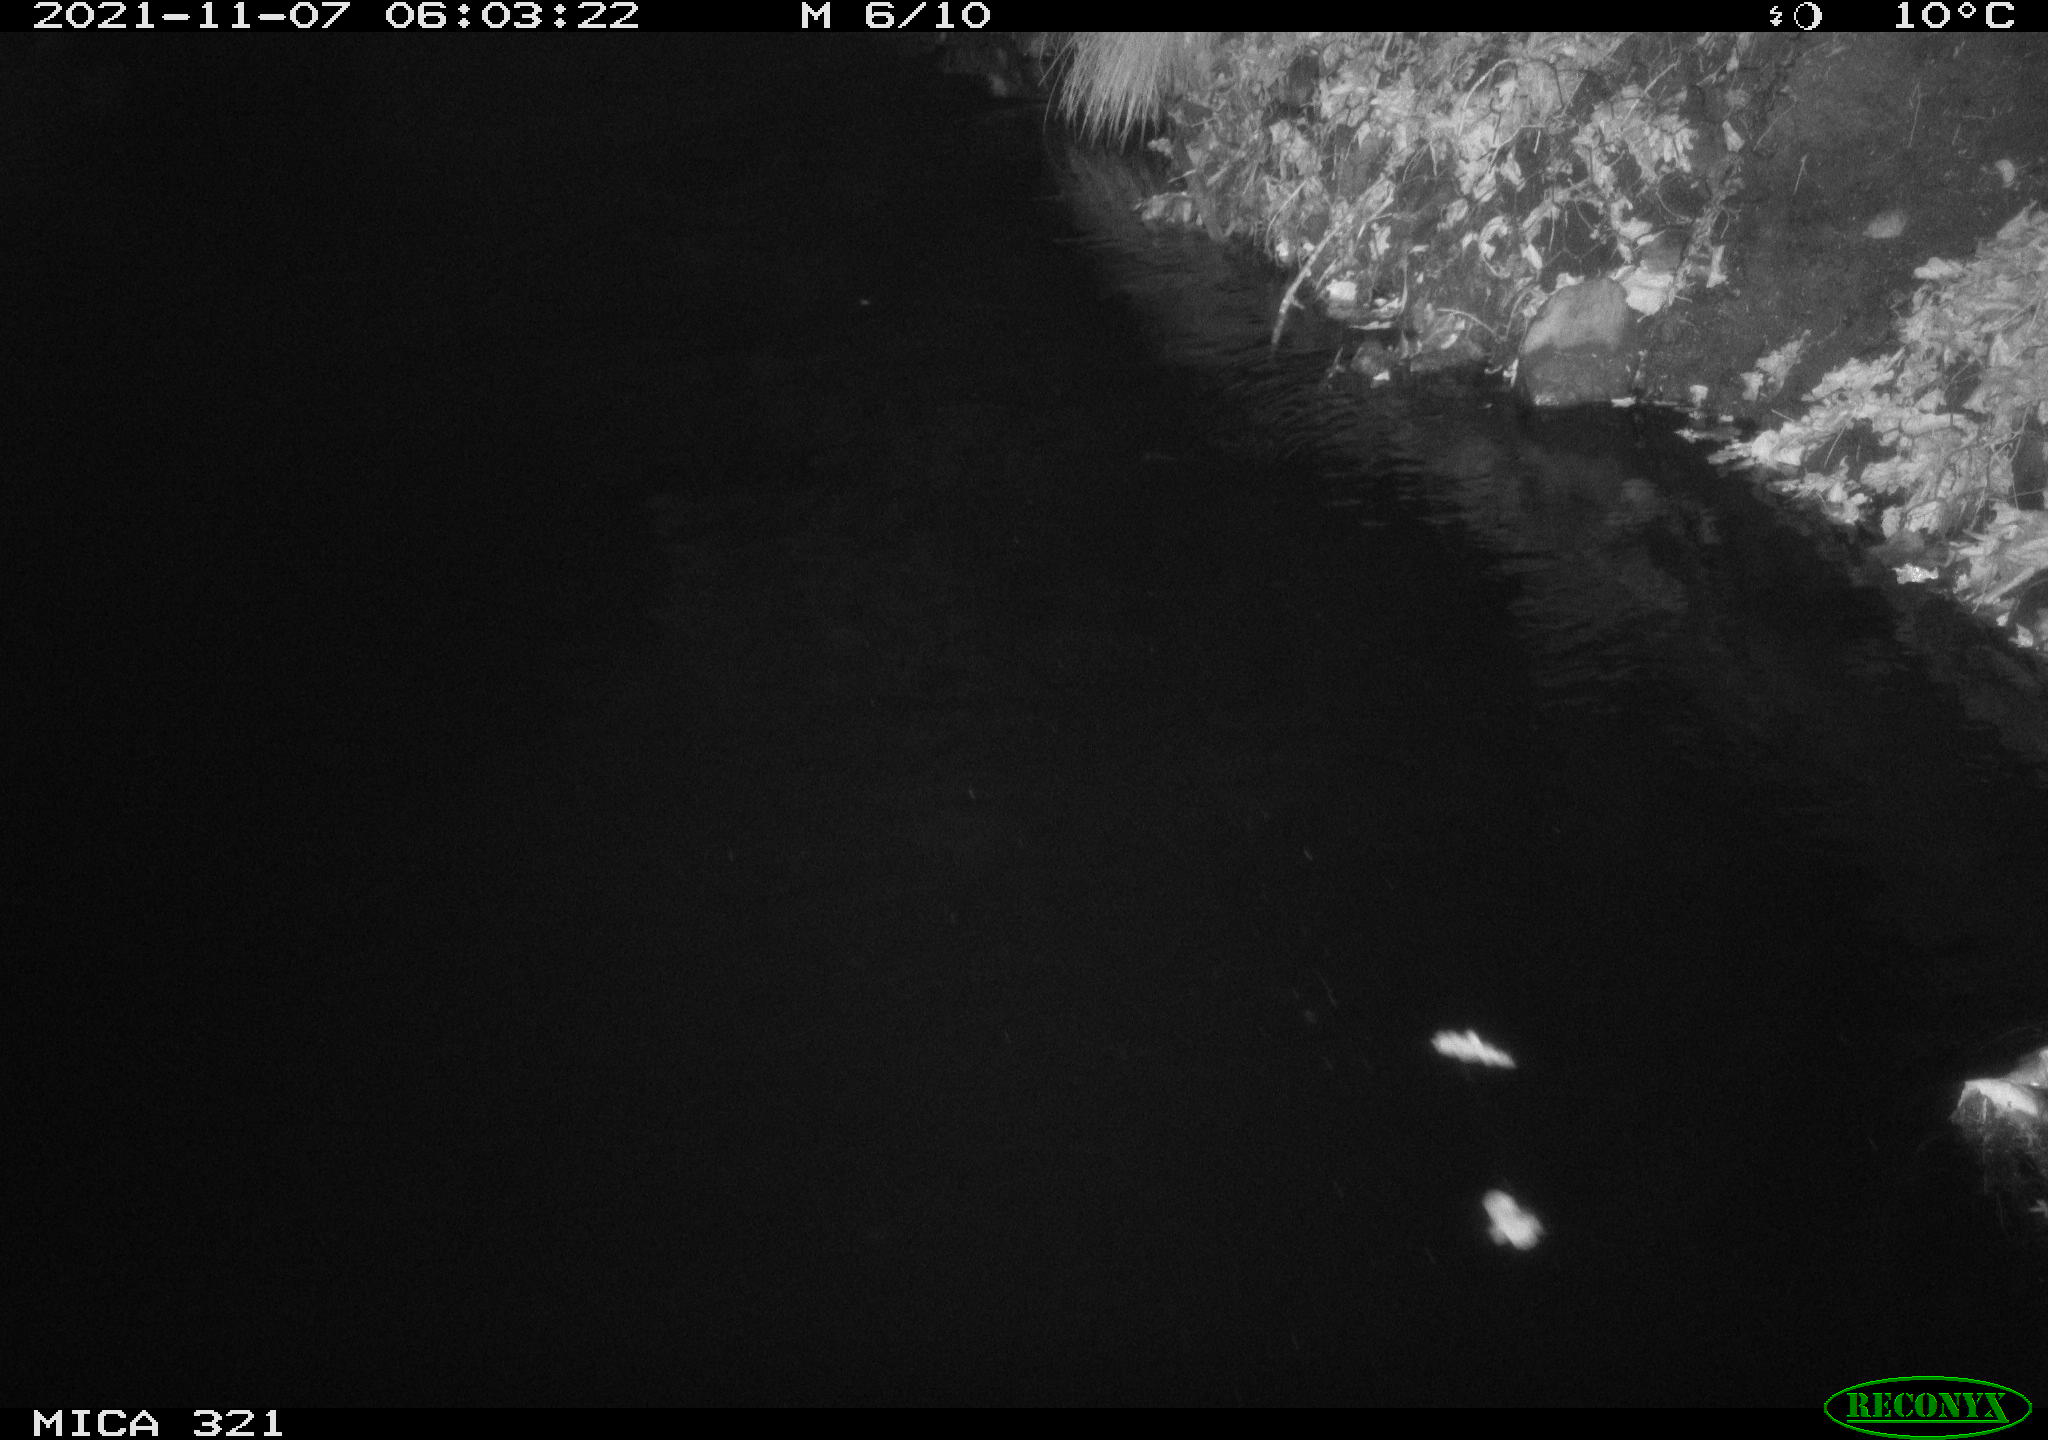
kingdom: Animalia
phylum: Chordata
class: Mammalia
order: Rodentia
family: Muridae
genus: Rattus
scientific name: Rattus norvegicus
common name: Brown rat
